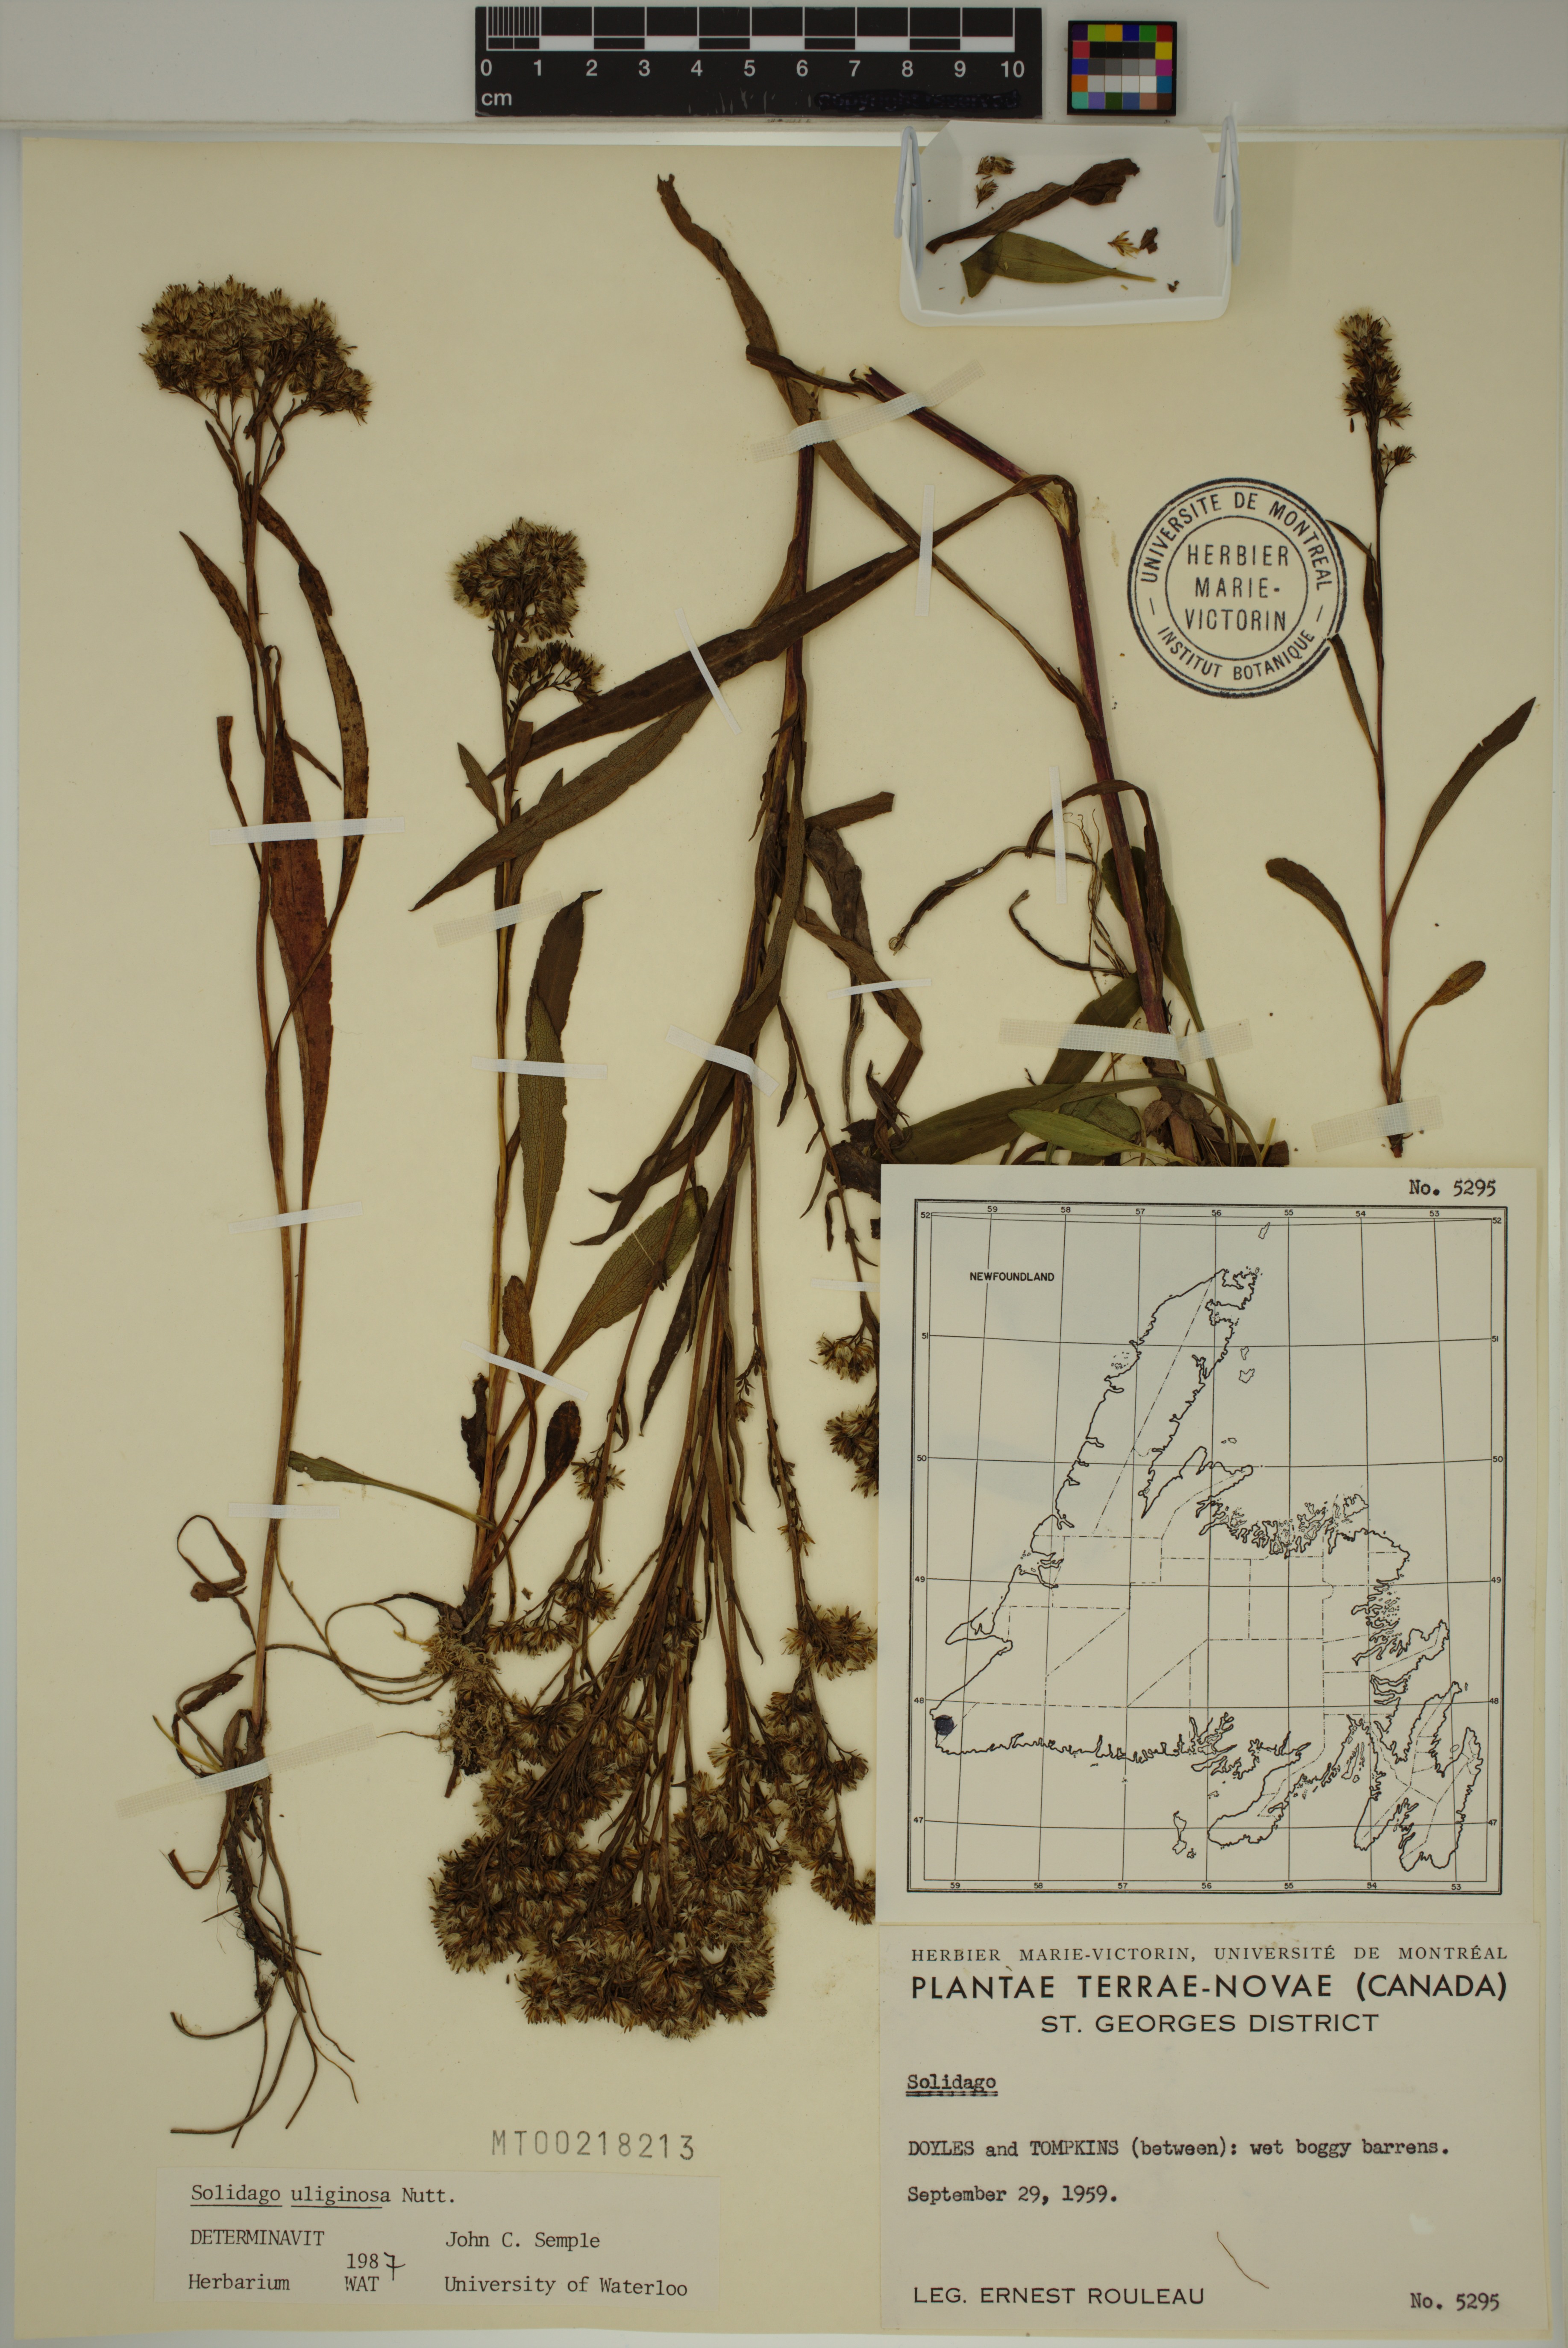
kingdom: Plantae
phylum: Tracheophyta
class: Magnoliopsida
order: Asterales
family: Asteraceae
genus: Solidago
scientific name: Solidago uliginosa
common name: Bog goldenrod
